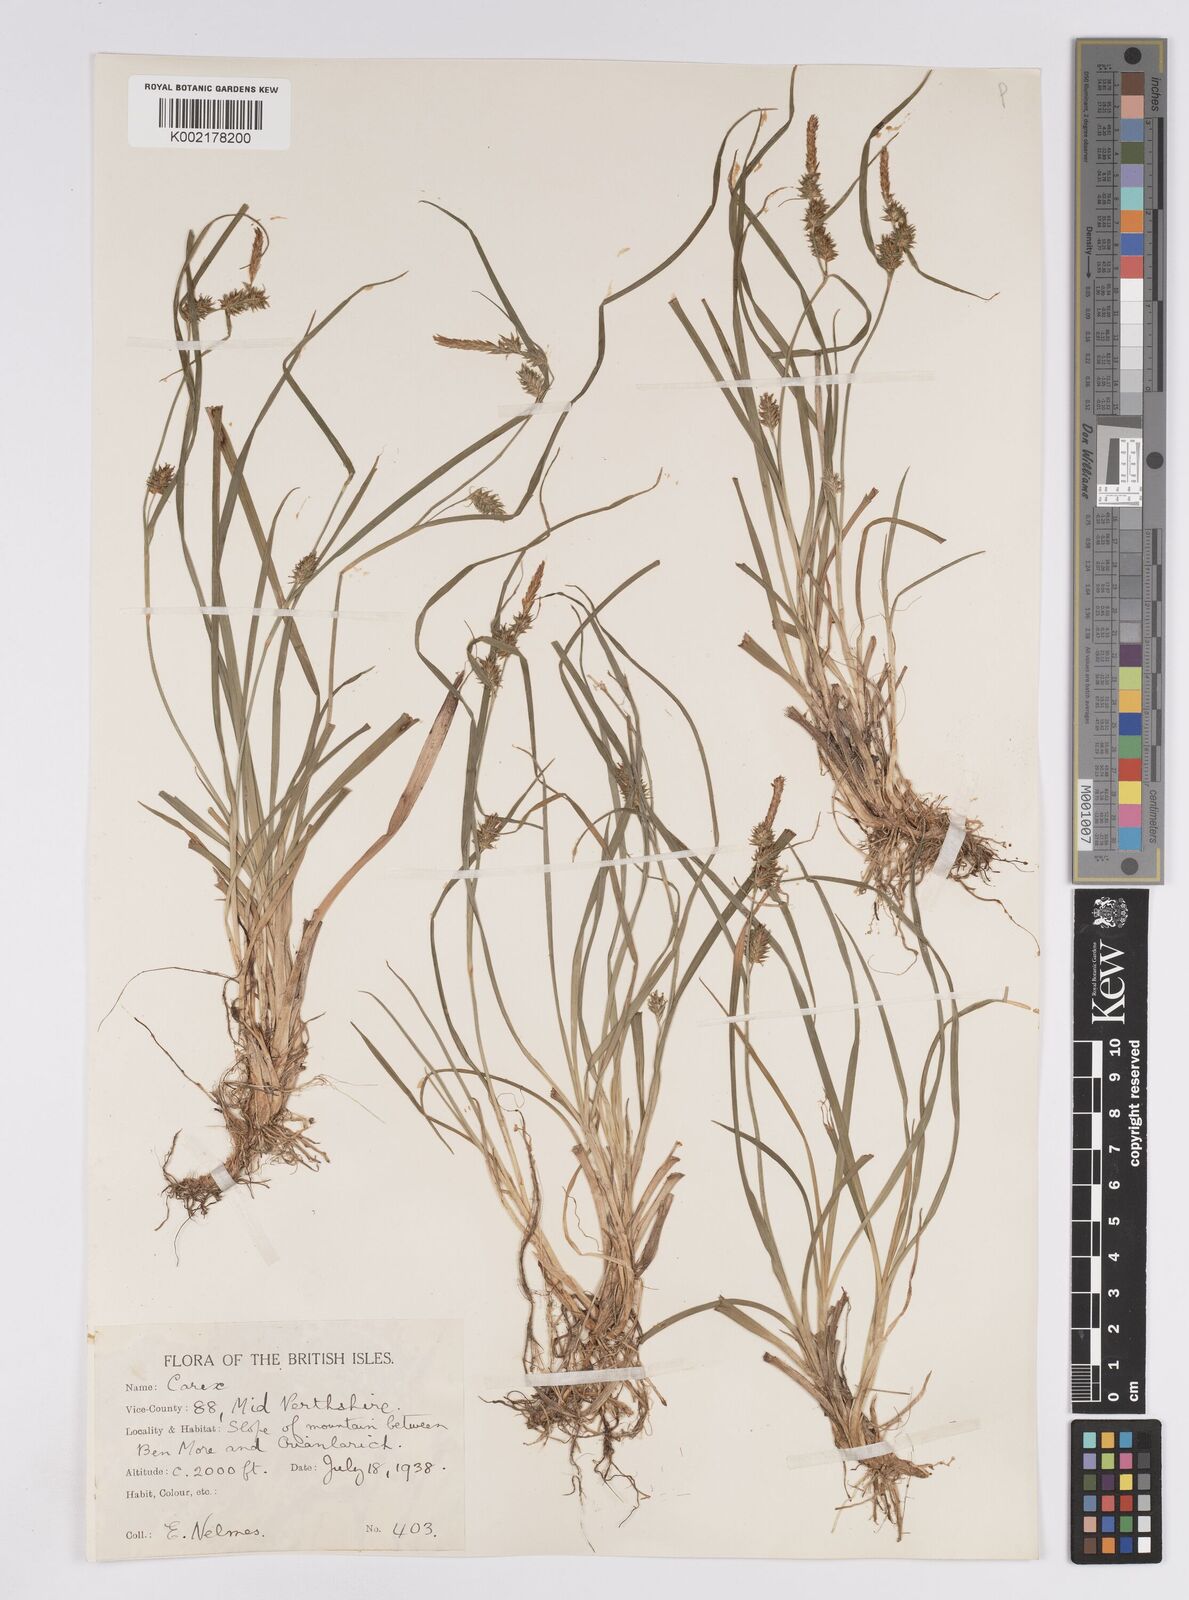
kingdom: Plantae
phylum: Tracheophyta
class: Liliopsida
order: Poales
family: Cyperaceae
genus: Carex
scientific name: Carex demissa
